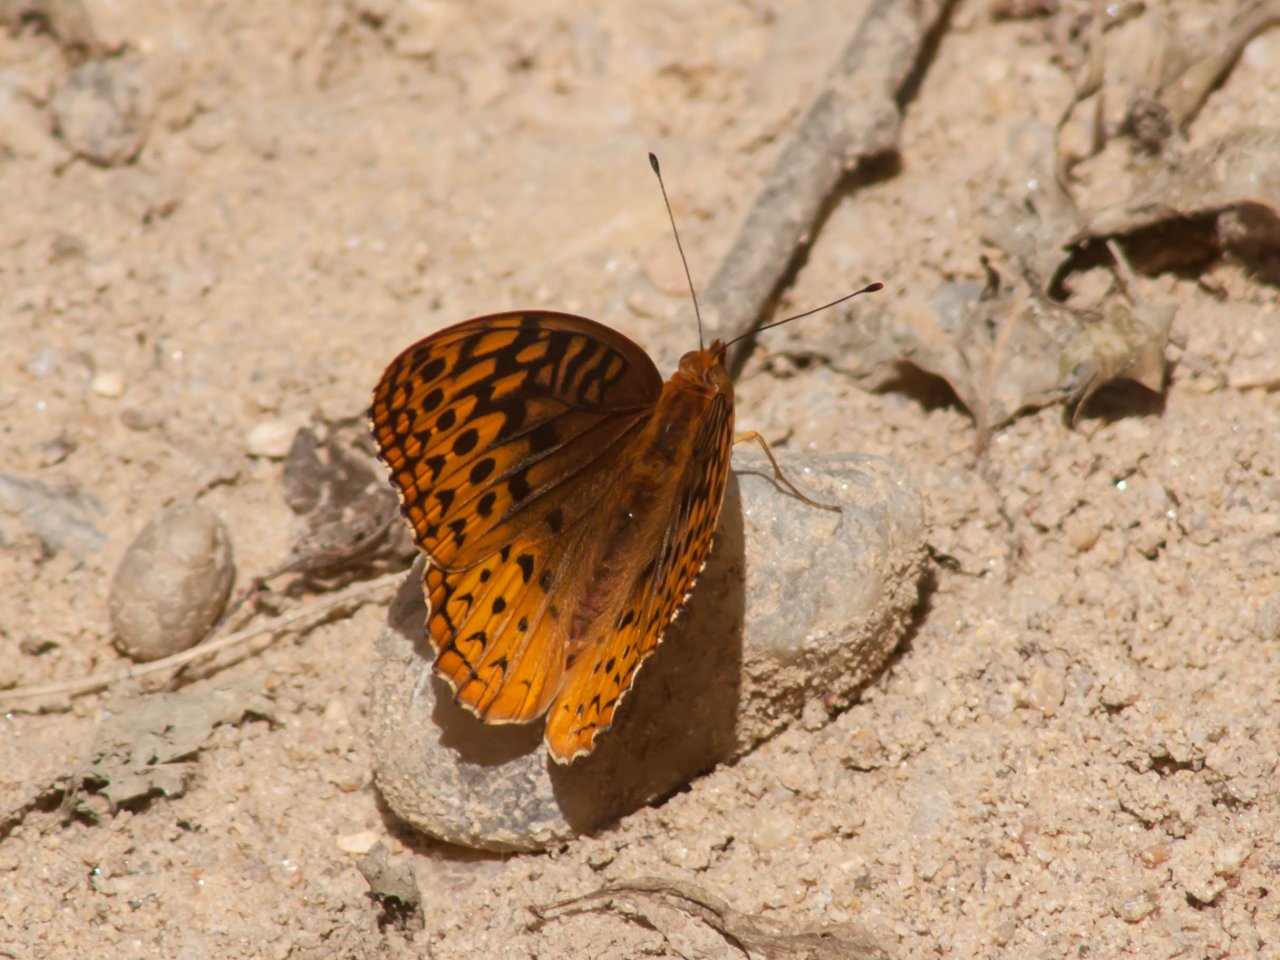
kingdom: Animalia
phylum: Arthropoda
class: Insecta
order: Lepidoptera
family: Nymphalidae
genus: Speyeria
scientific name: Speyeria cybele
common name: Great Spangled Fritillary
